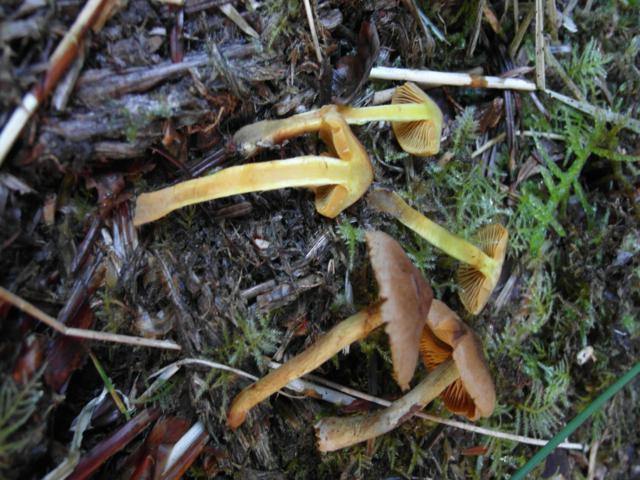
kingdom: Fungi
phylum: Basidiomycota
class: Agaricomycetes
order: Agaricales
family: Cortinariaceae
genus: Cortinarius
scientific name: Cortinarius malicorius
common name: grønkødet slørhat
